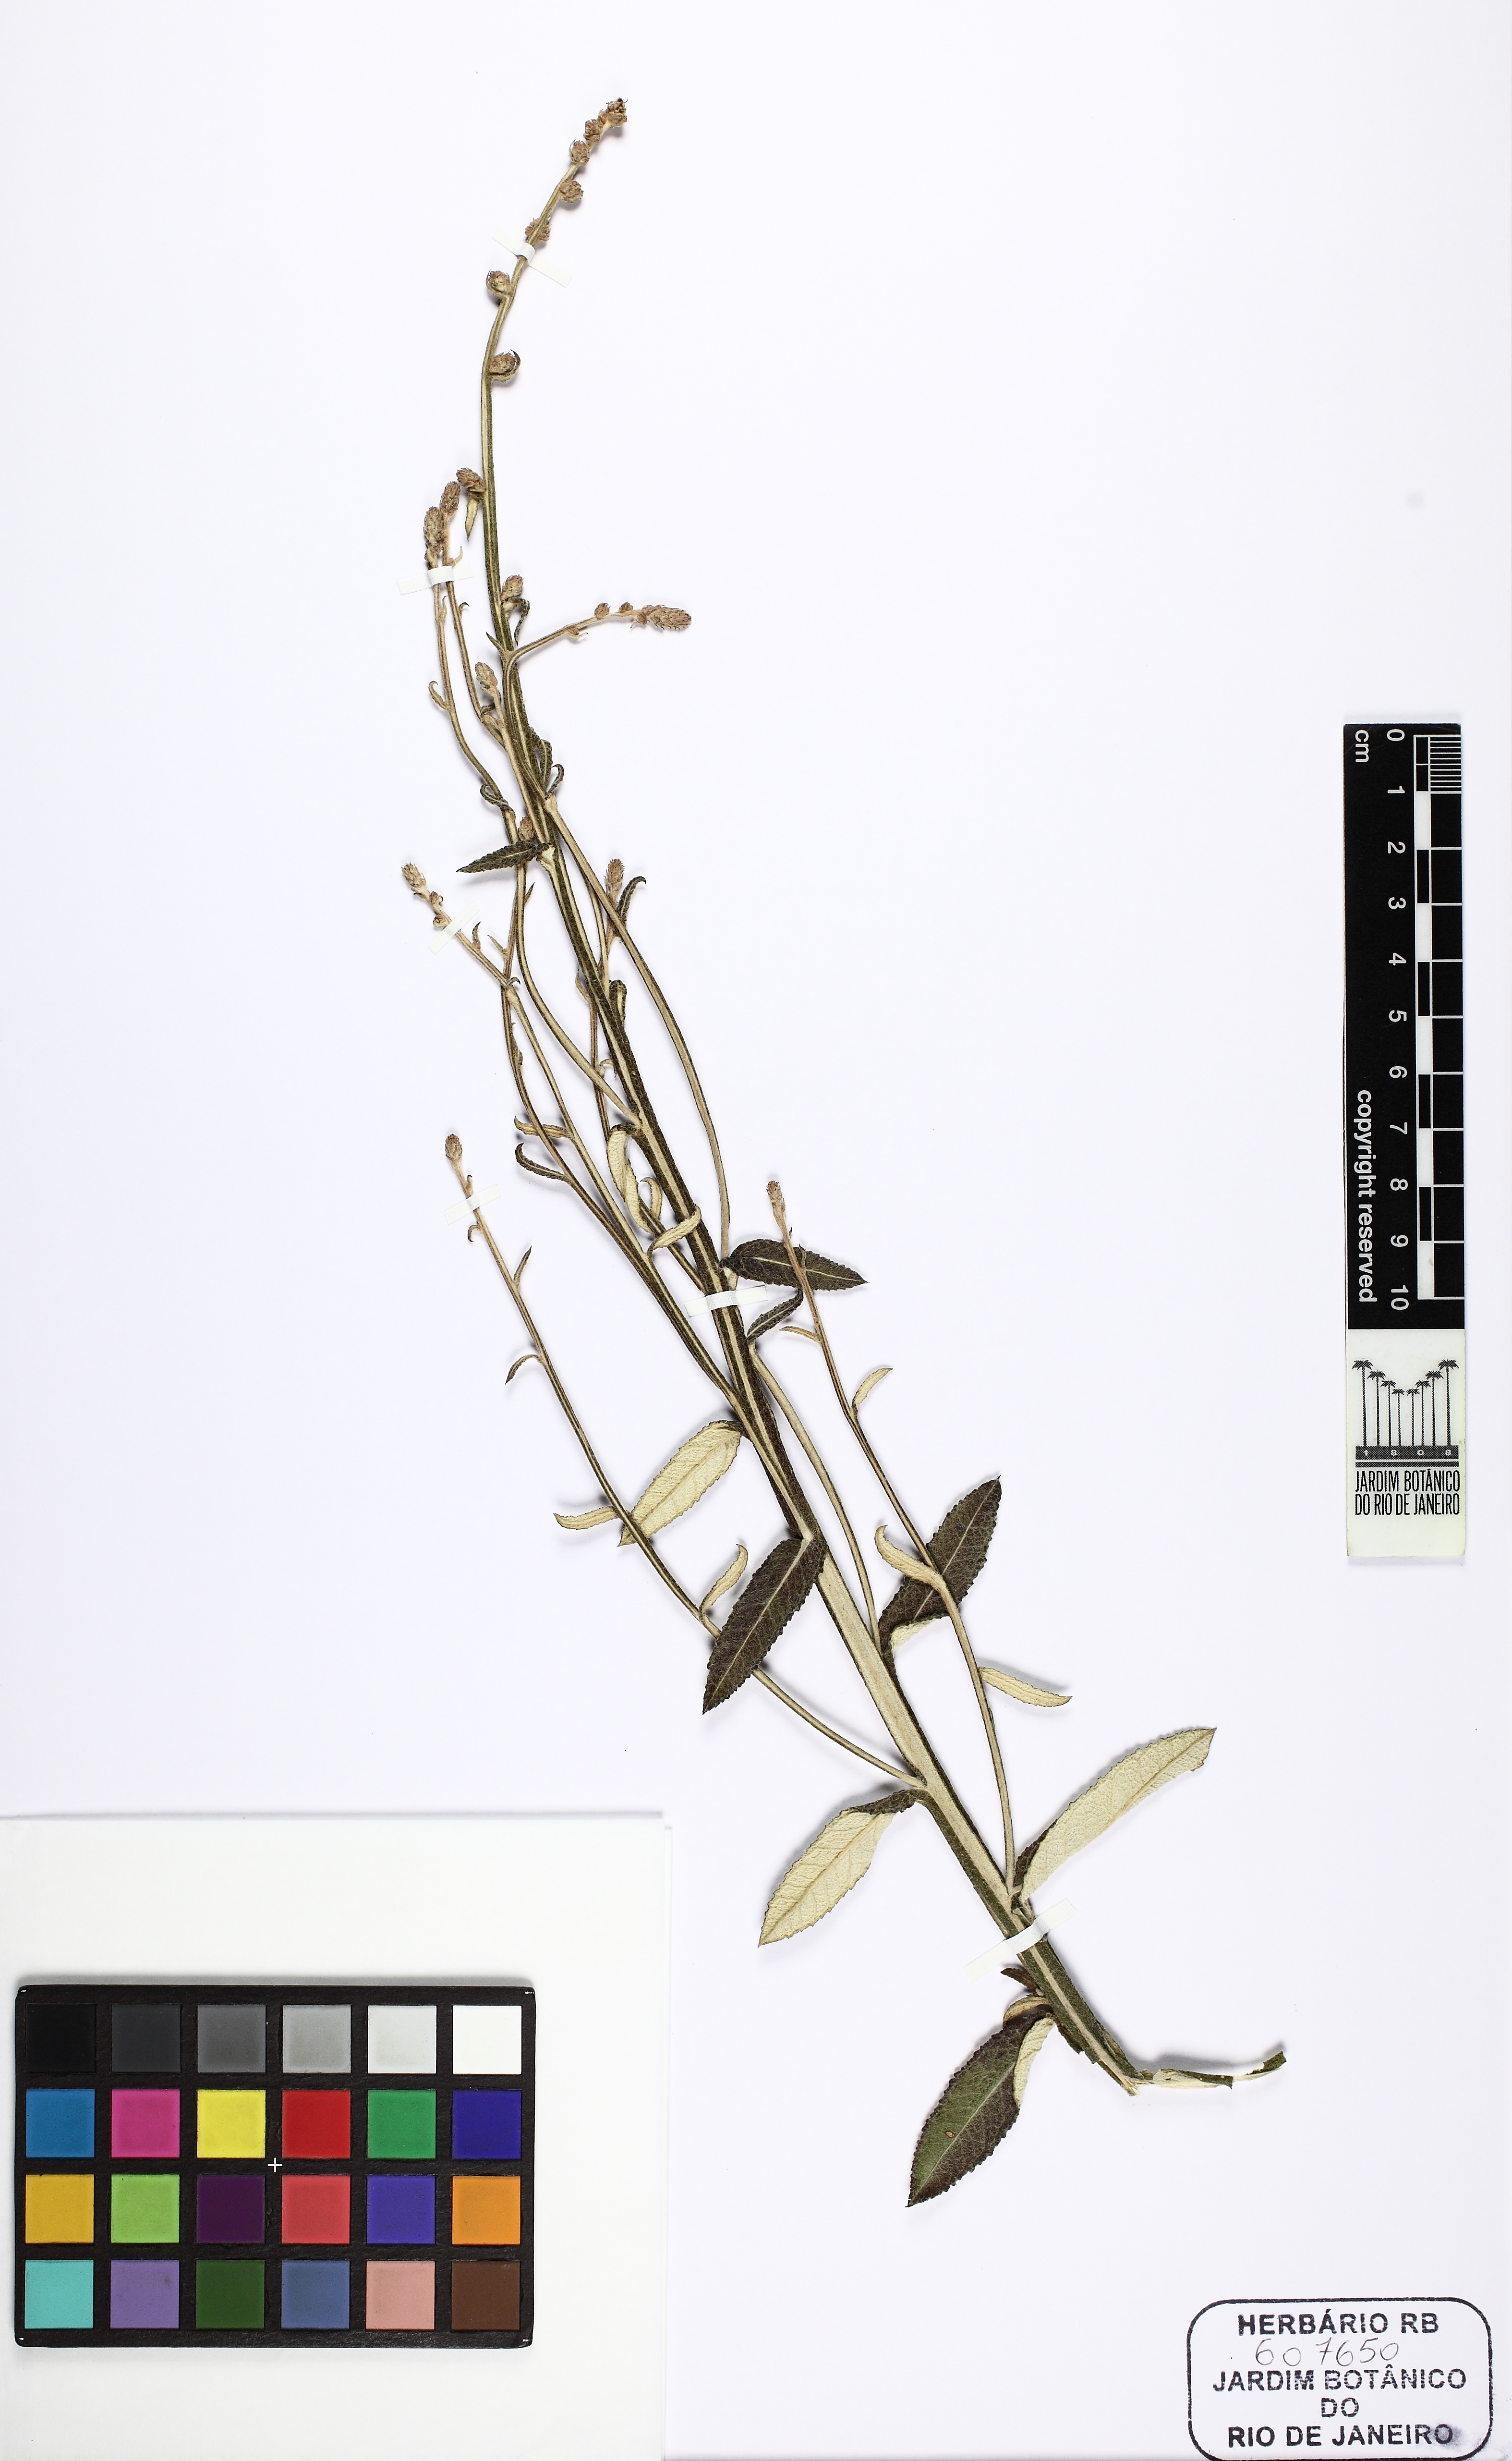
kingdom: Plantae
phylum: Tracheophyta
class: Magnoliopsida
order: Asterales
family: Asteraceae
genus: Pterocaulon
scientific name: Pterocaulon alopecuroides
